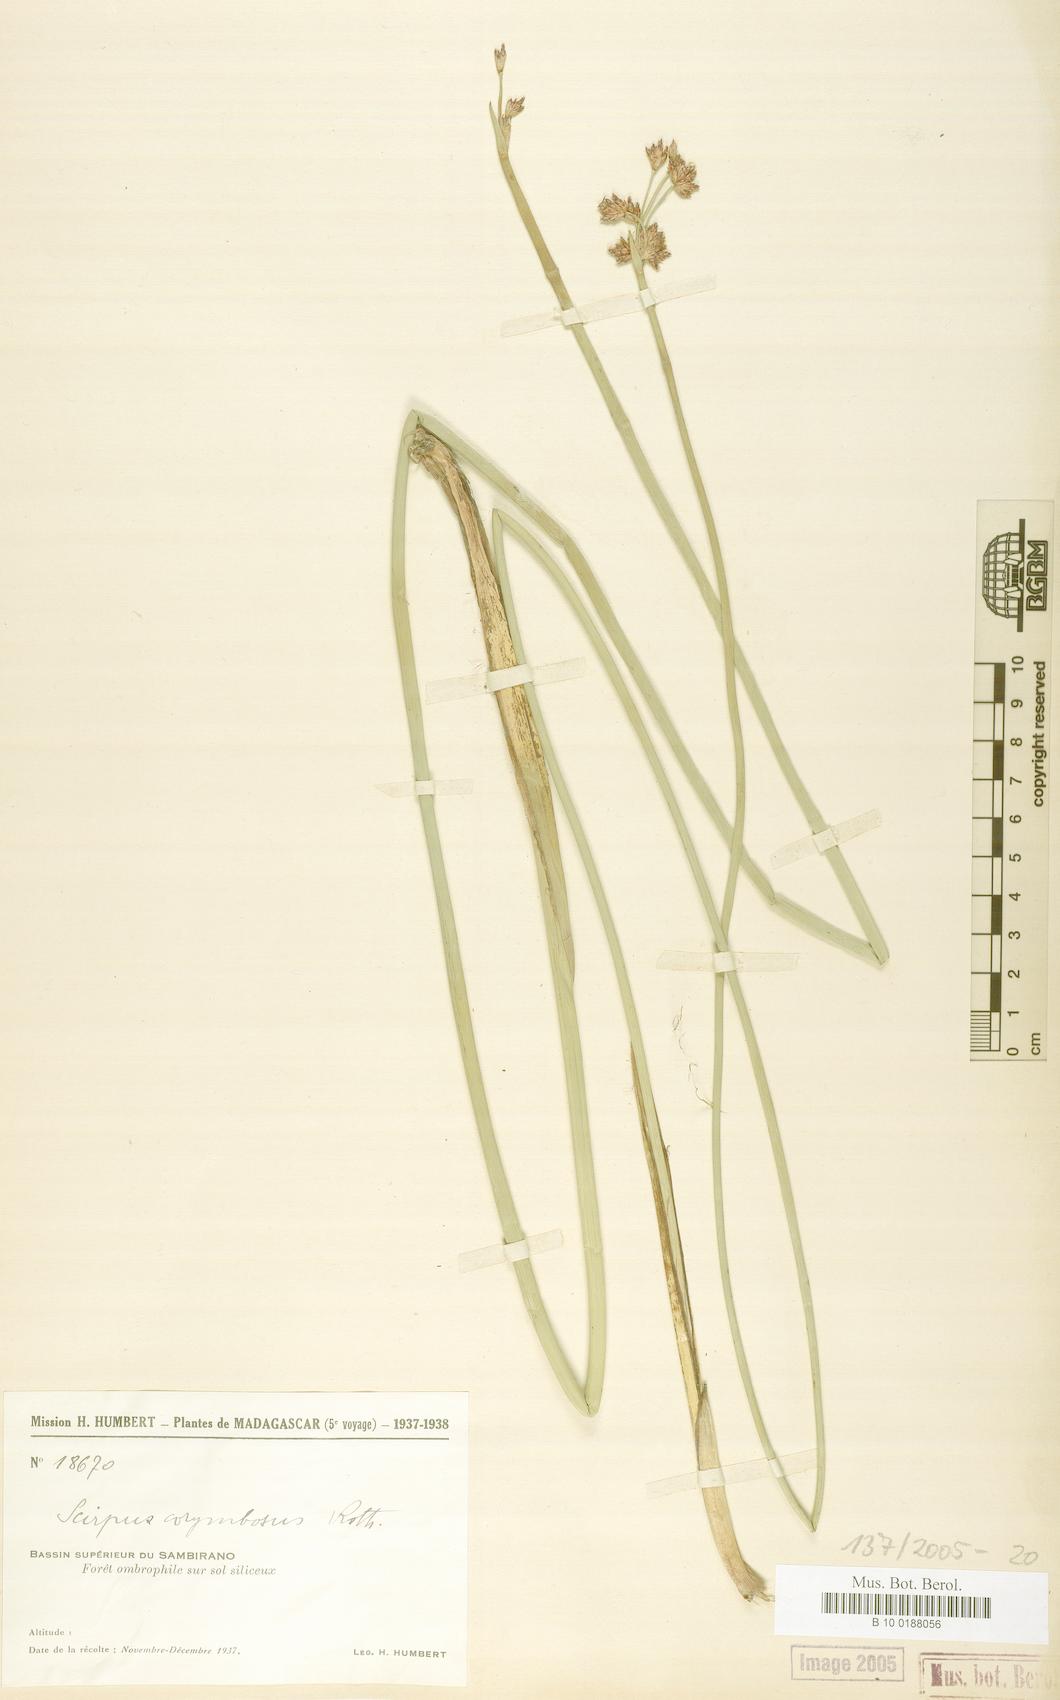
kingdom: Plantae
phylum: Tracheophyta
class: Liliopsida
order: Poales
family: Cyperaceae
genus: Scirpus
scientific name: Scirpus corymbosus
